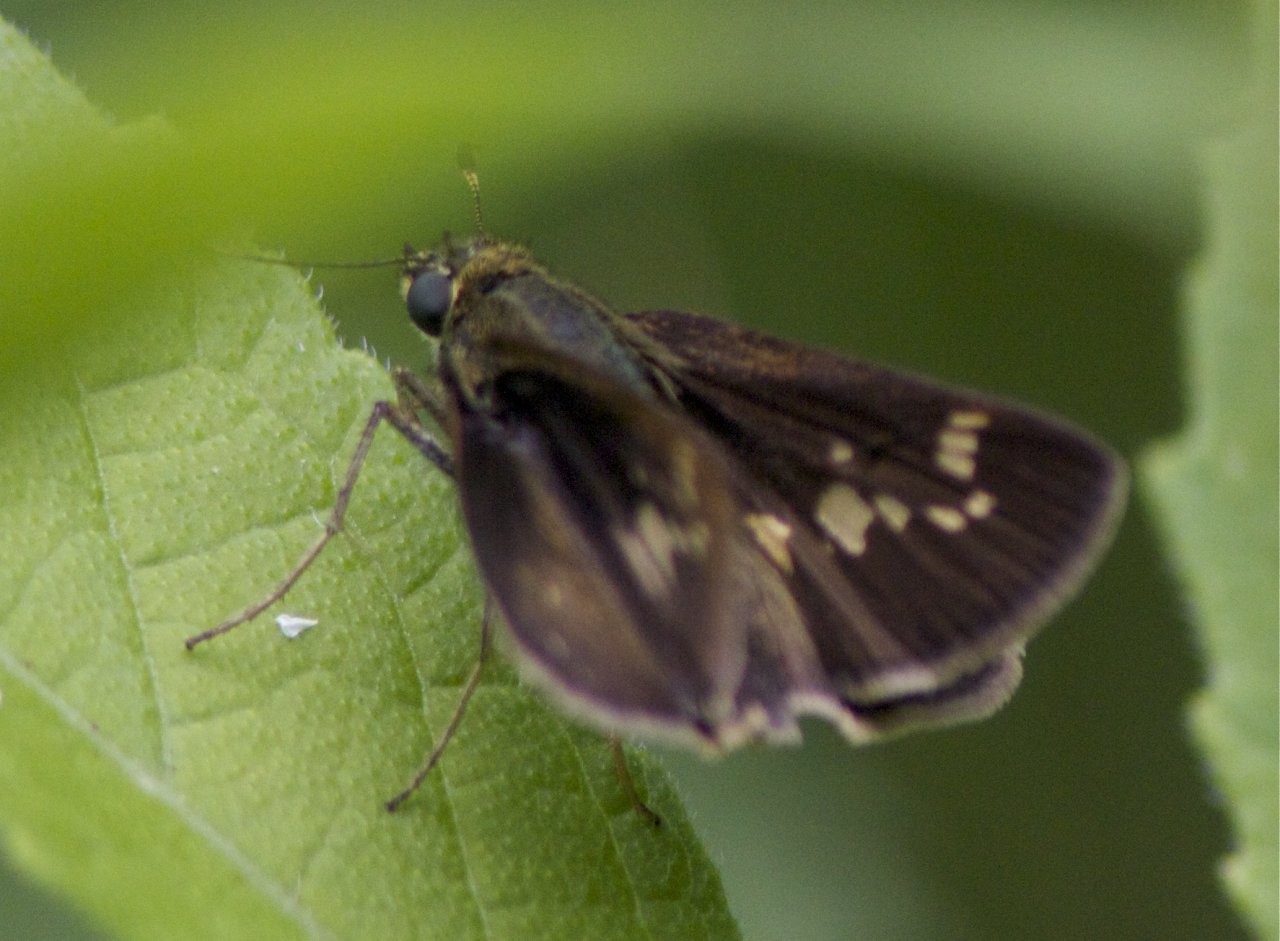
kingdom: Animalia
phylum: Arthropoda
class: Insecta
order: Lepidoptera
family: Hesperiidae
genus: Vernia
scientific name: Vernia verna
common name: Little Glassywing
